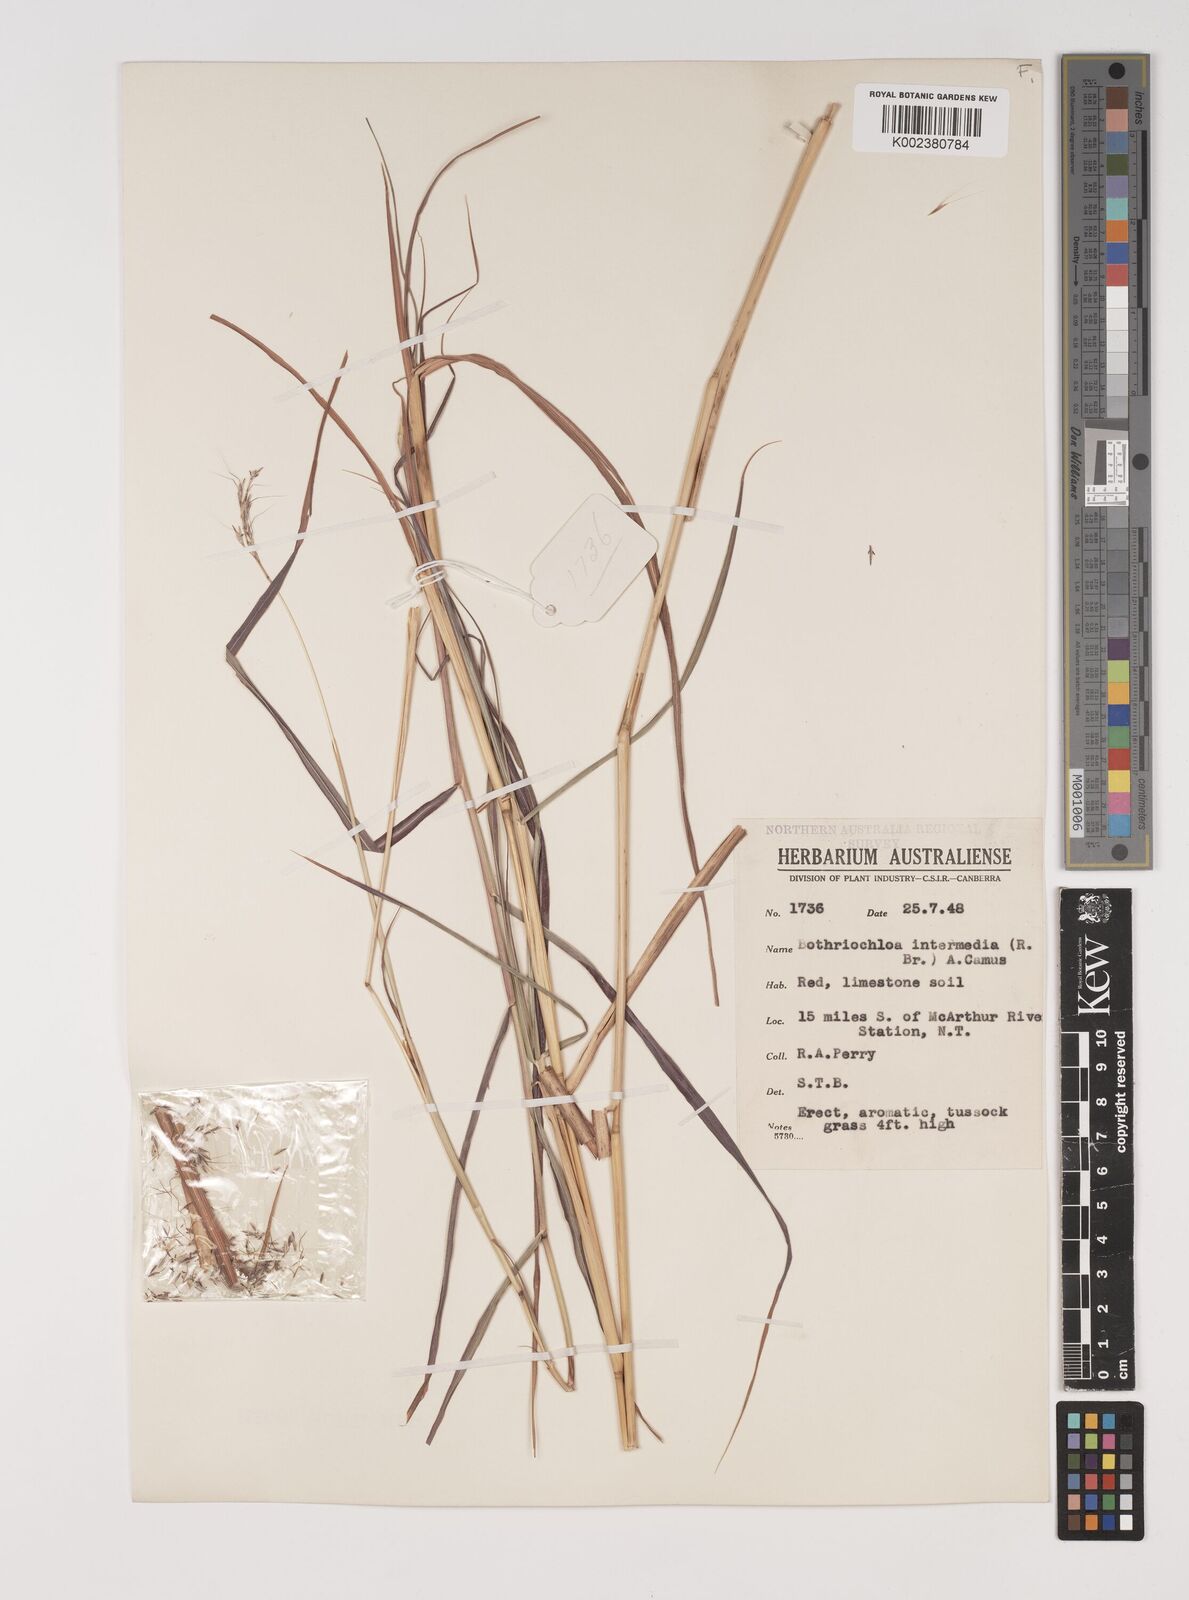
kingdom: Plantae
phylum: Tracheophyta
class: Liliopsida
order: Poales
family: Poaceae
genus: Bothriochloa
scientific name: Bothriochloa bladhii
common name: Caucasian bluestem
